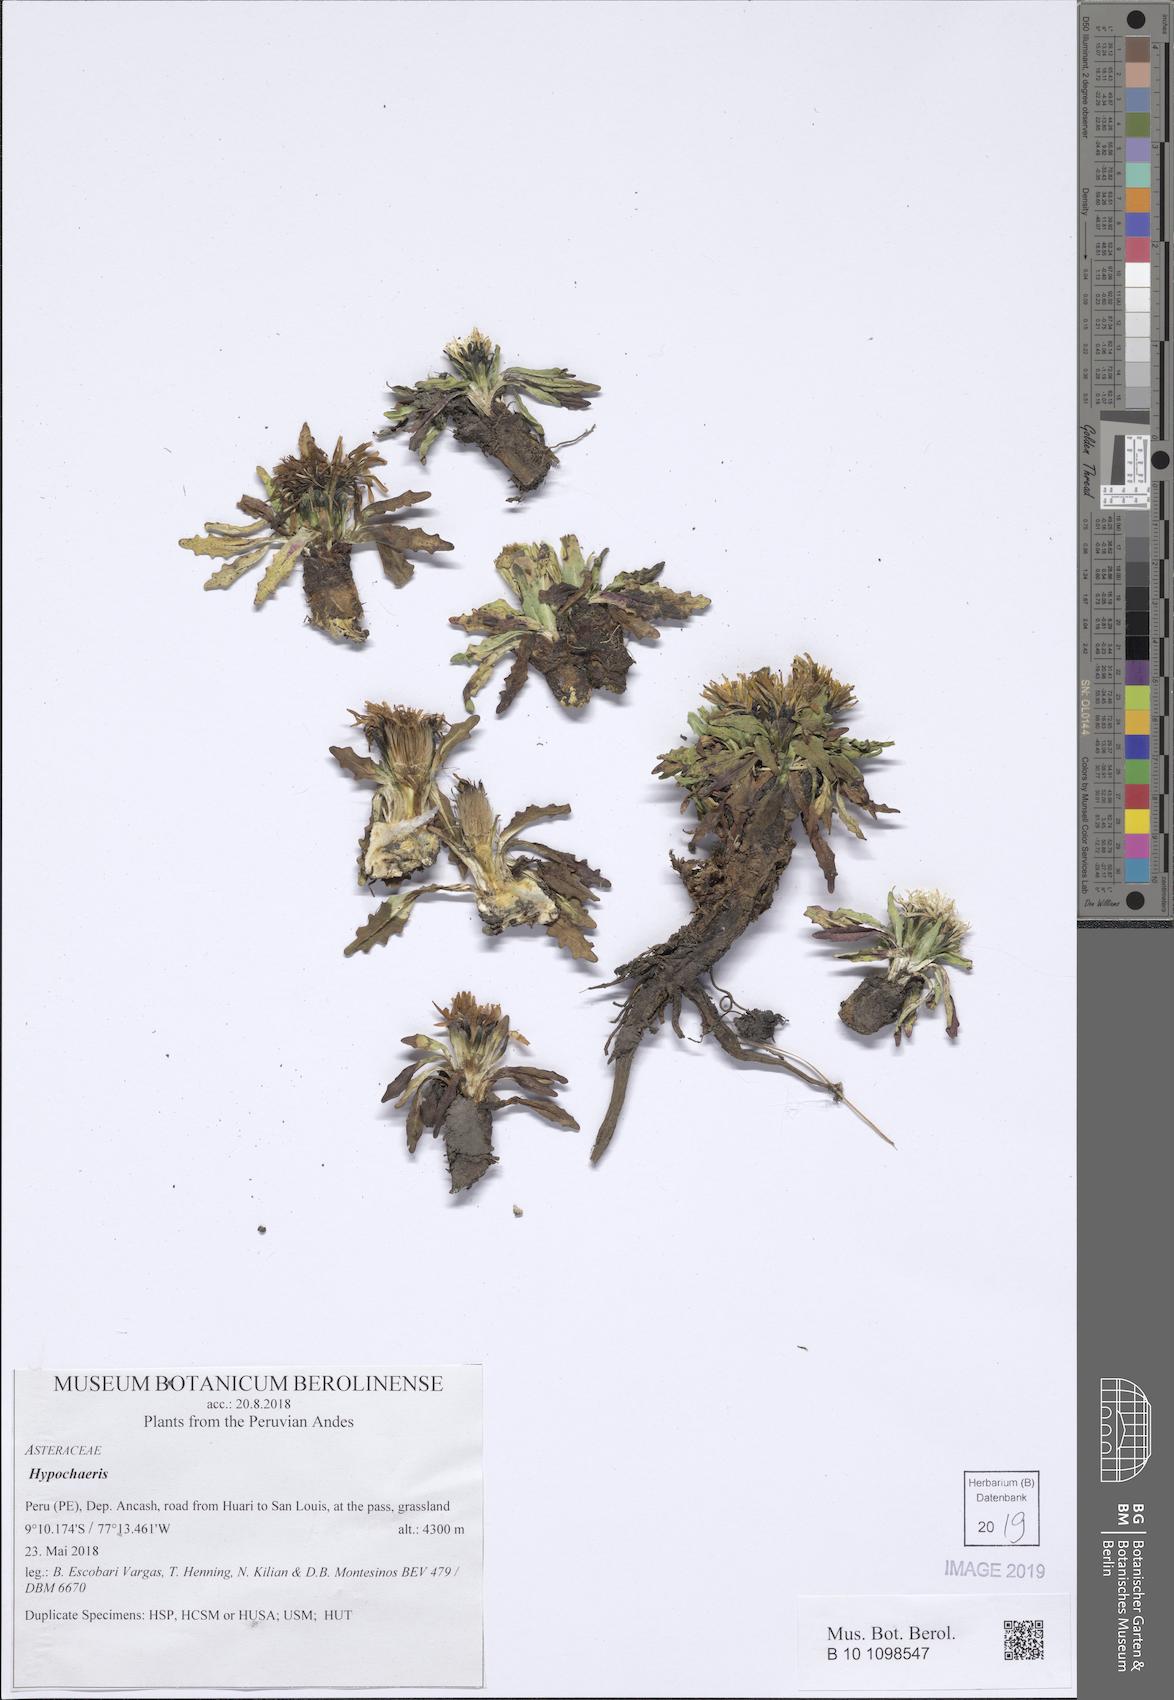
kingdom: Plantae
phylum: Tracheophyta
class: Magnoliopsida
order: Asterales
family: Asteraceae
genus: Hypochaeris
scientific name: Hypochaeris
